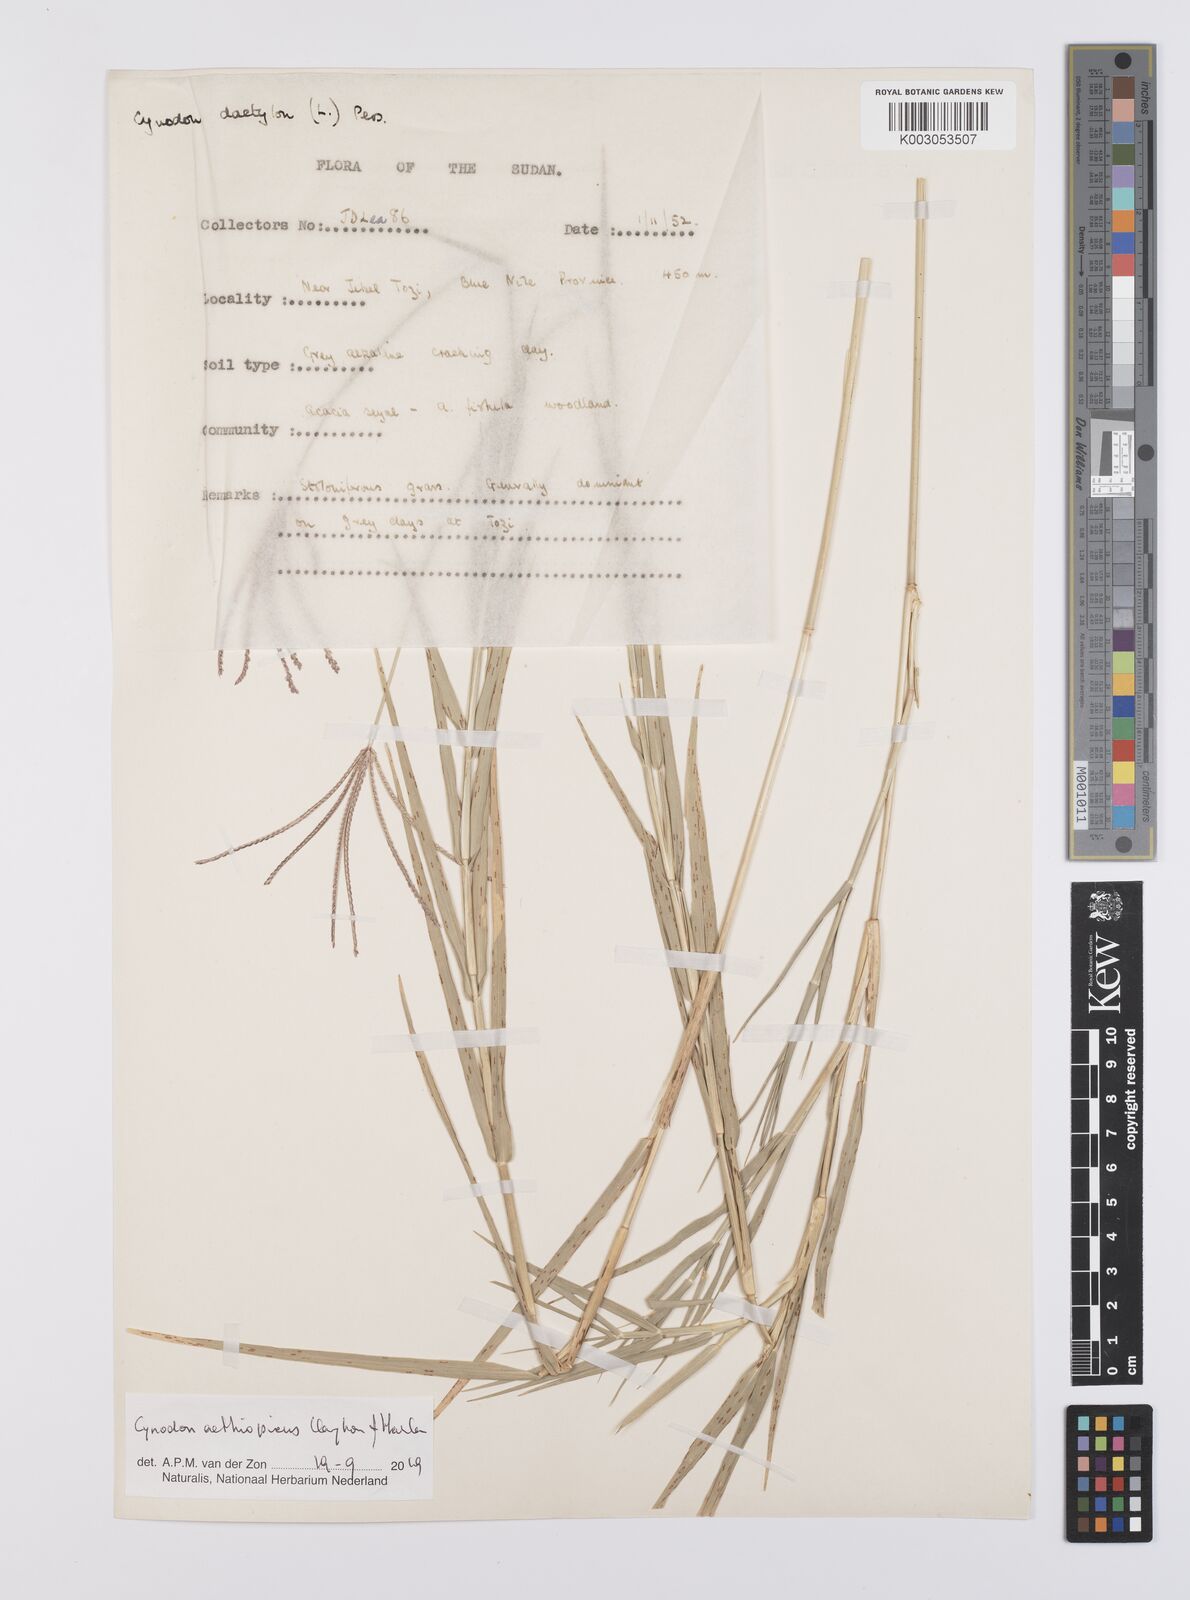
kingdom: Plantae
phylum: Tracheophyta
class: Liliopsida
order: Poales
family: Poaceae
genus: Cynodon
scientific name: Cynodon aethiopicus
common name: Ethiopian dogstooth grass
